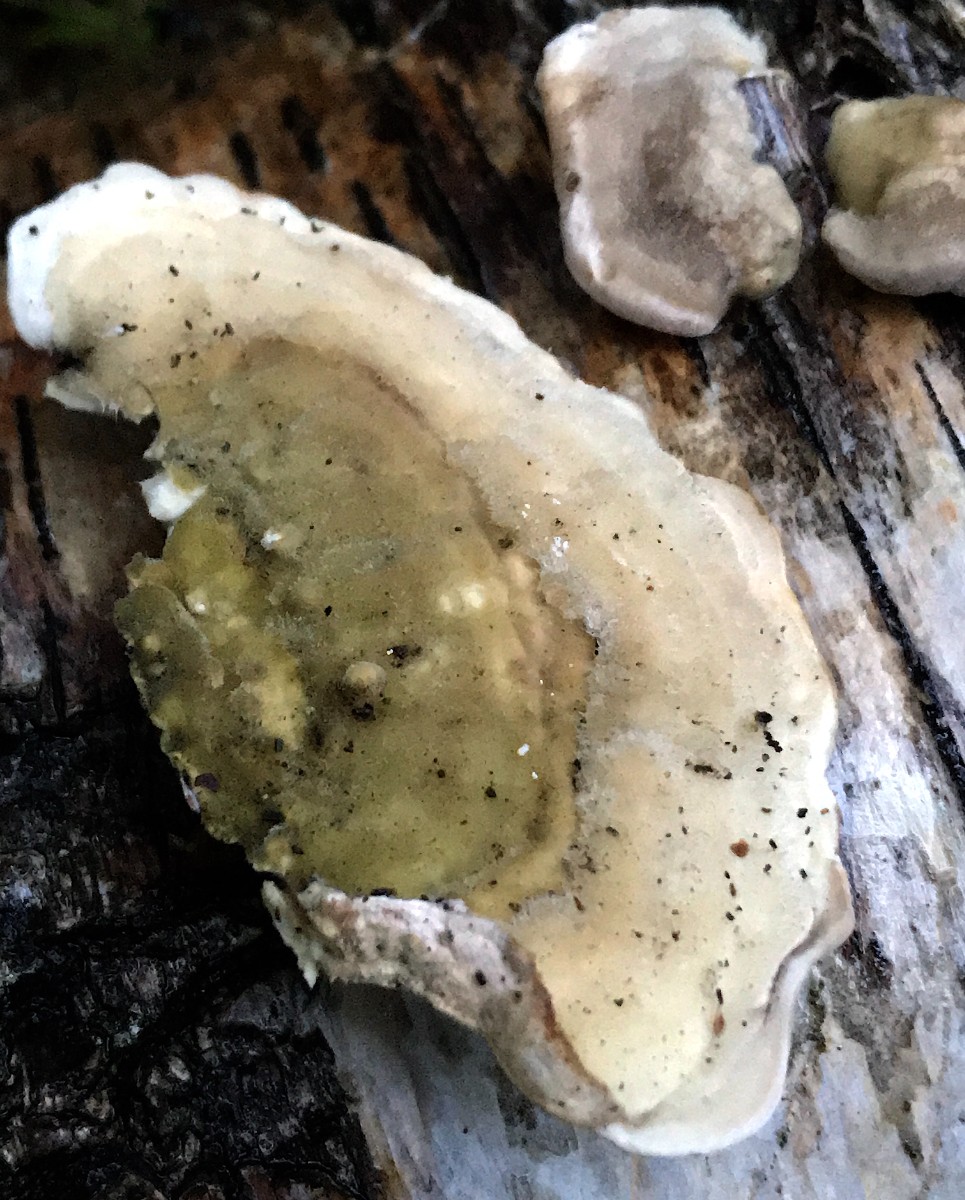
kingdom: Fungi
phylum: Basidiomycota
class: Agaricomycetes
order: Polyporales
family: Polyporaceae
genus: Trametes
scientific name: Trametes hirsuta
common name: håret læderporesvamp
